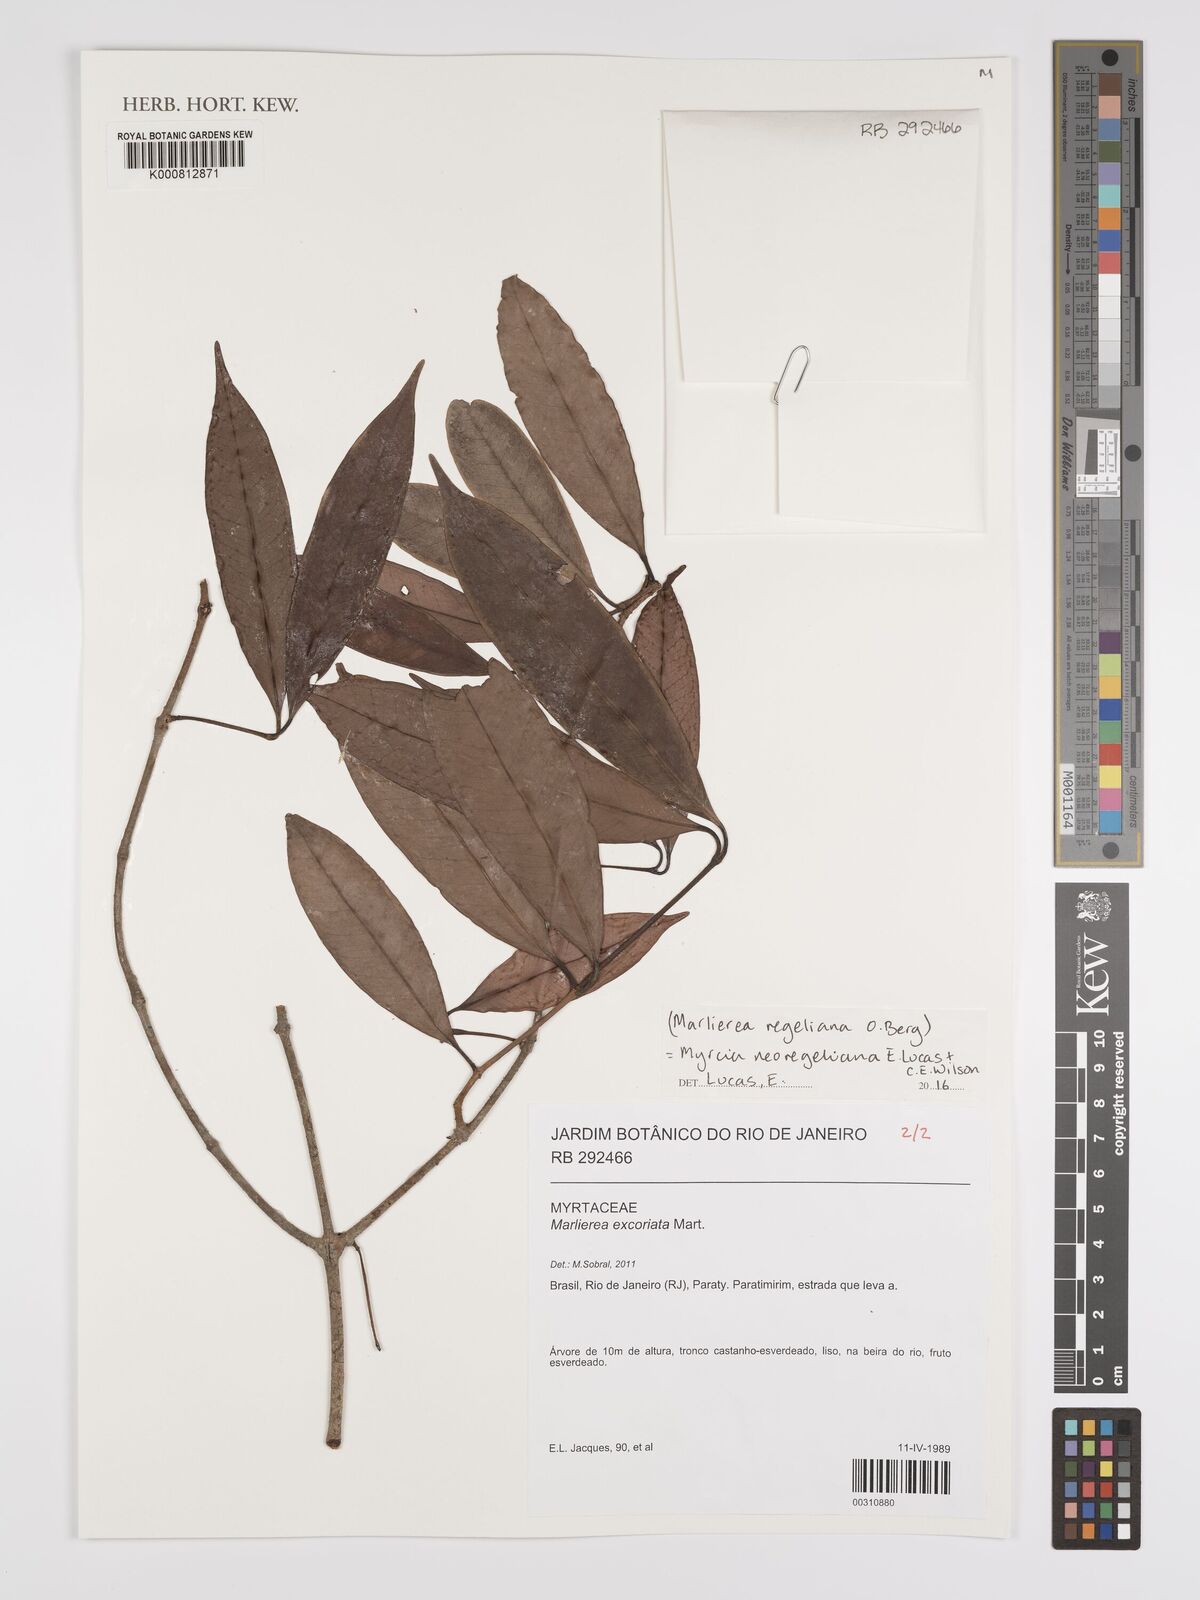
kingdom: Plantae
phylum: Tracheophyta
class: Magnoliopsida
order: Myrtales
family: Myrtaceae
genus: Myrcia
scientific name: Myrcia neoregeliana
